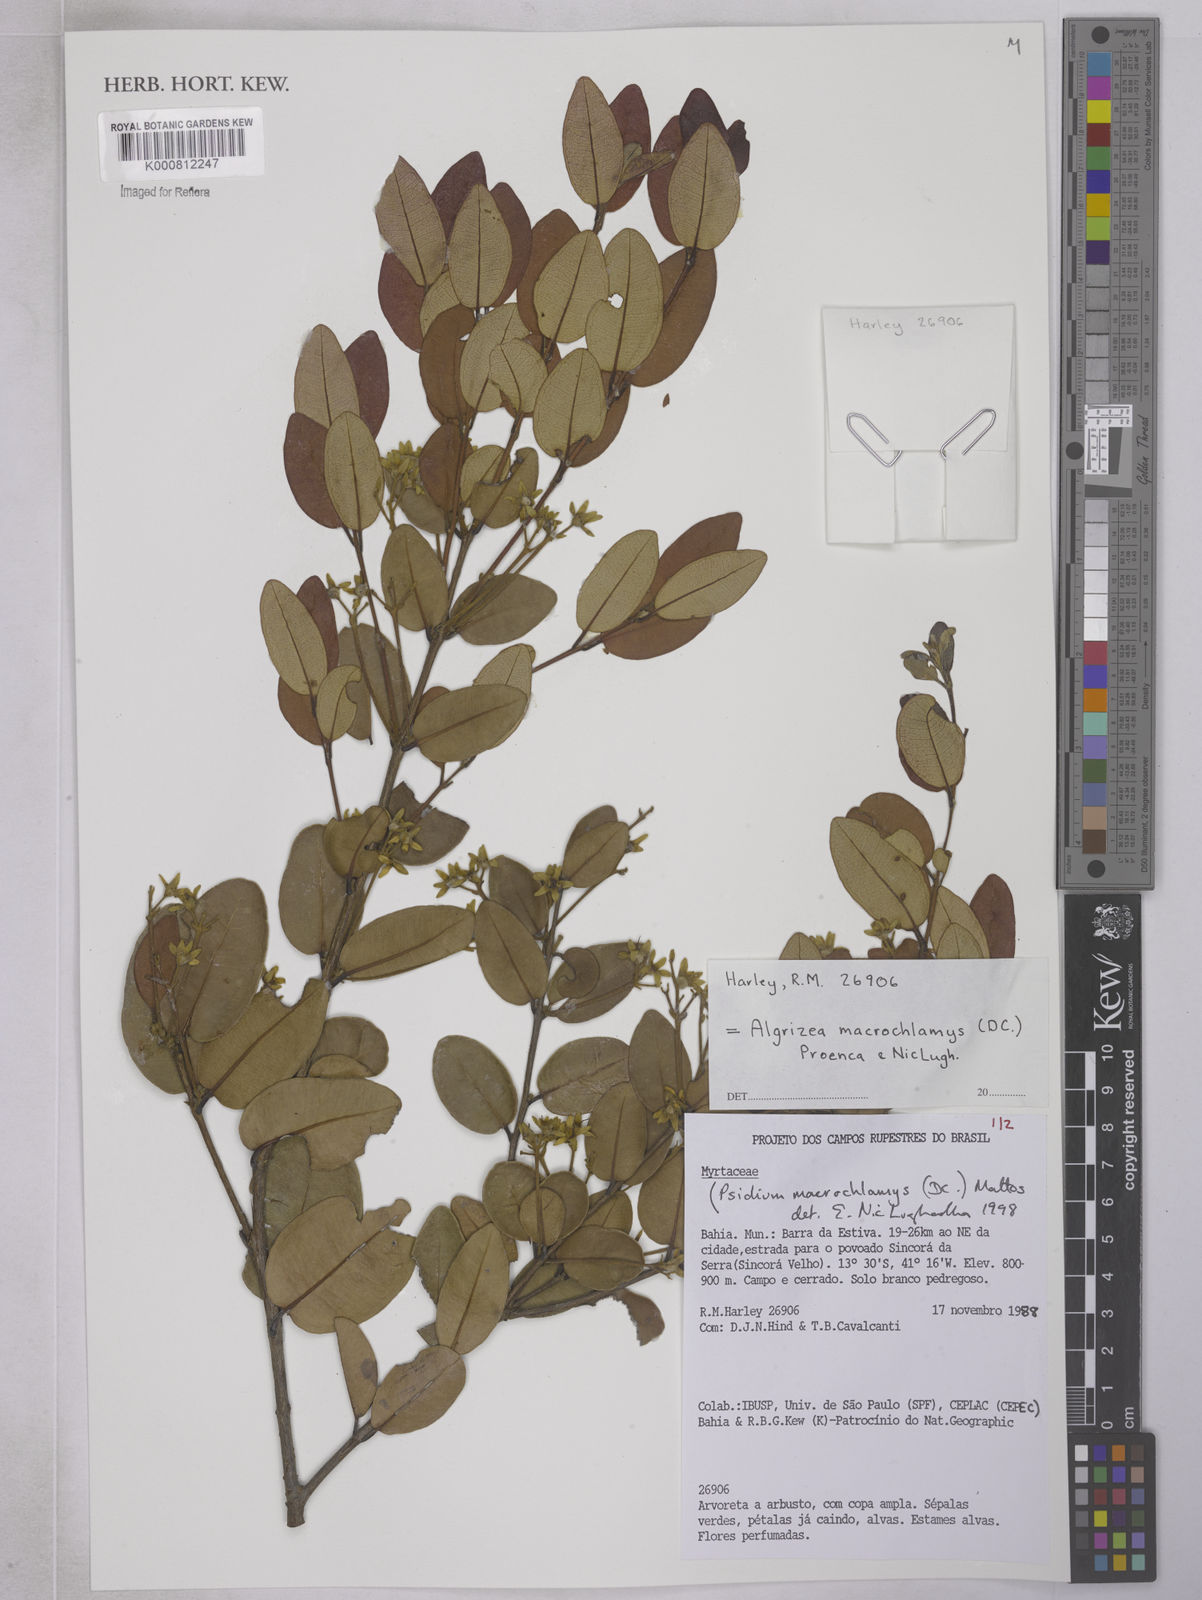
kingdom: Plantae
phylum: Tracheophyta
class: Magnoliopsida
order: Myrtales
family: Myrtaceae
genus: Algrizea
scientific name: Algrizea macrochlamys
